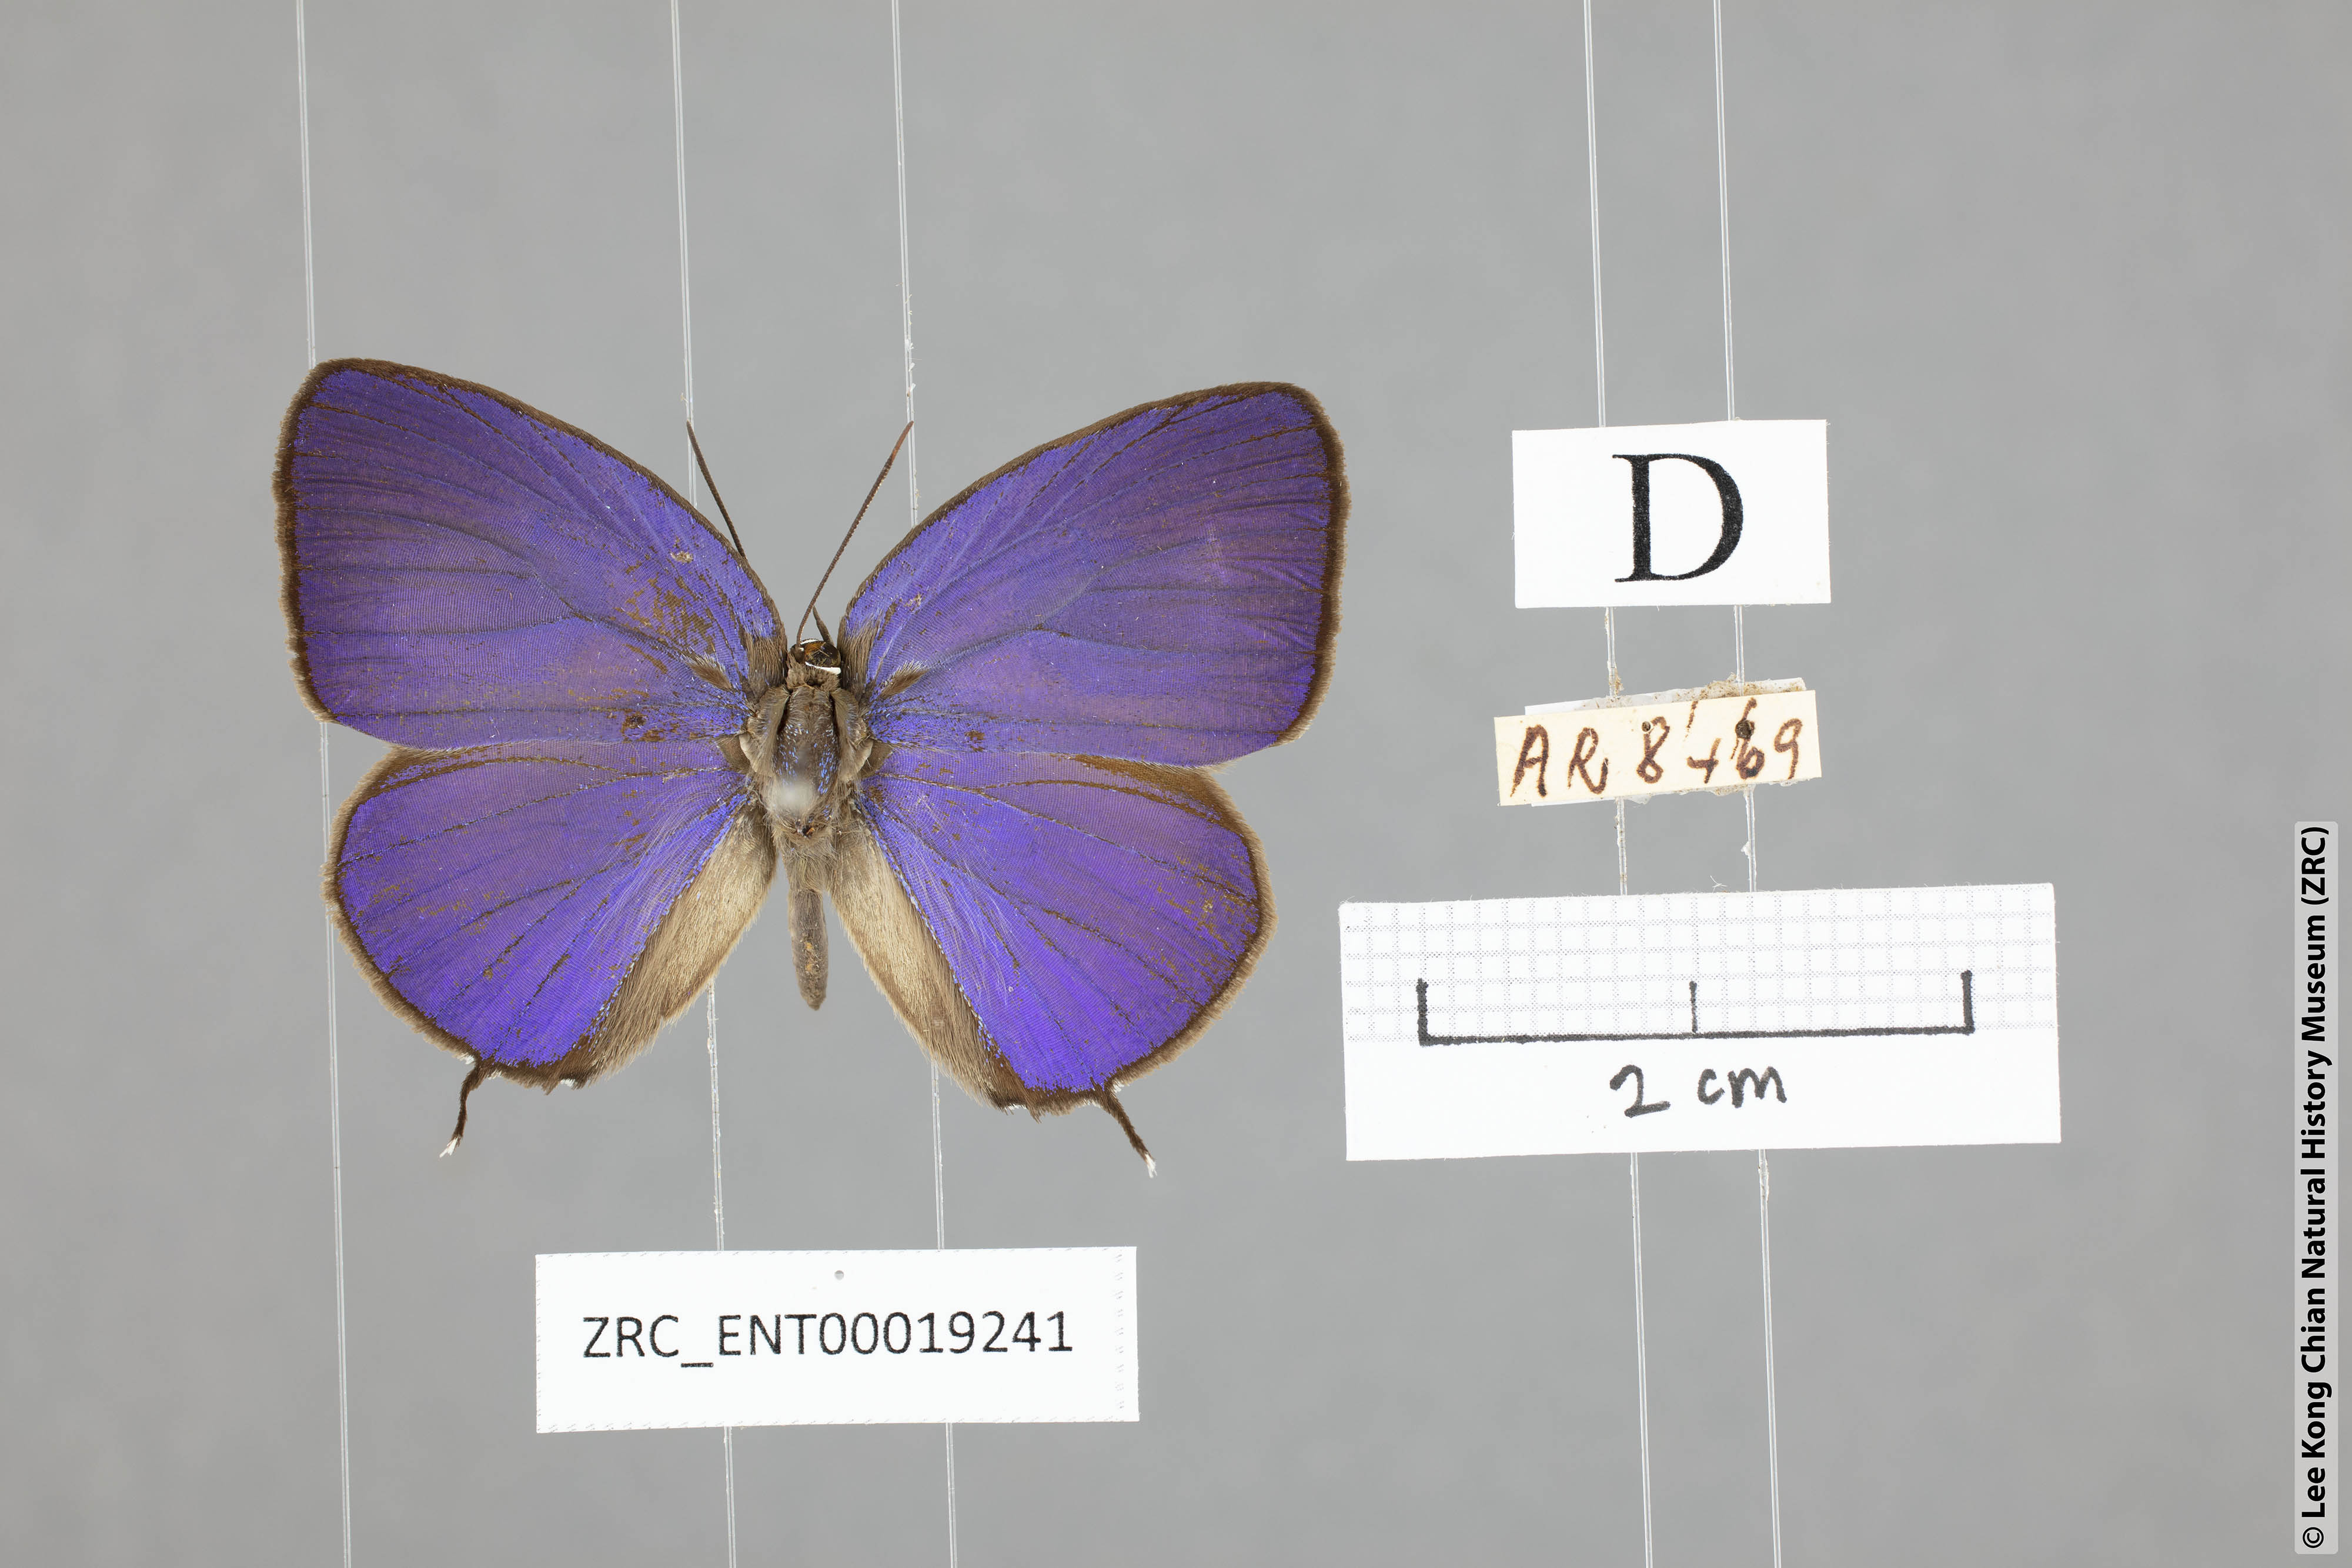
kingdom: Animalia
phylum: Arthropoda
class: Insecta
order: Lepidoptera
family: Lycaenidae
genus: Arhopala
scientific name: Arhopala atosia
